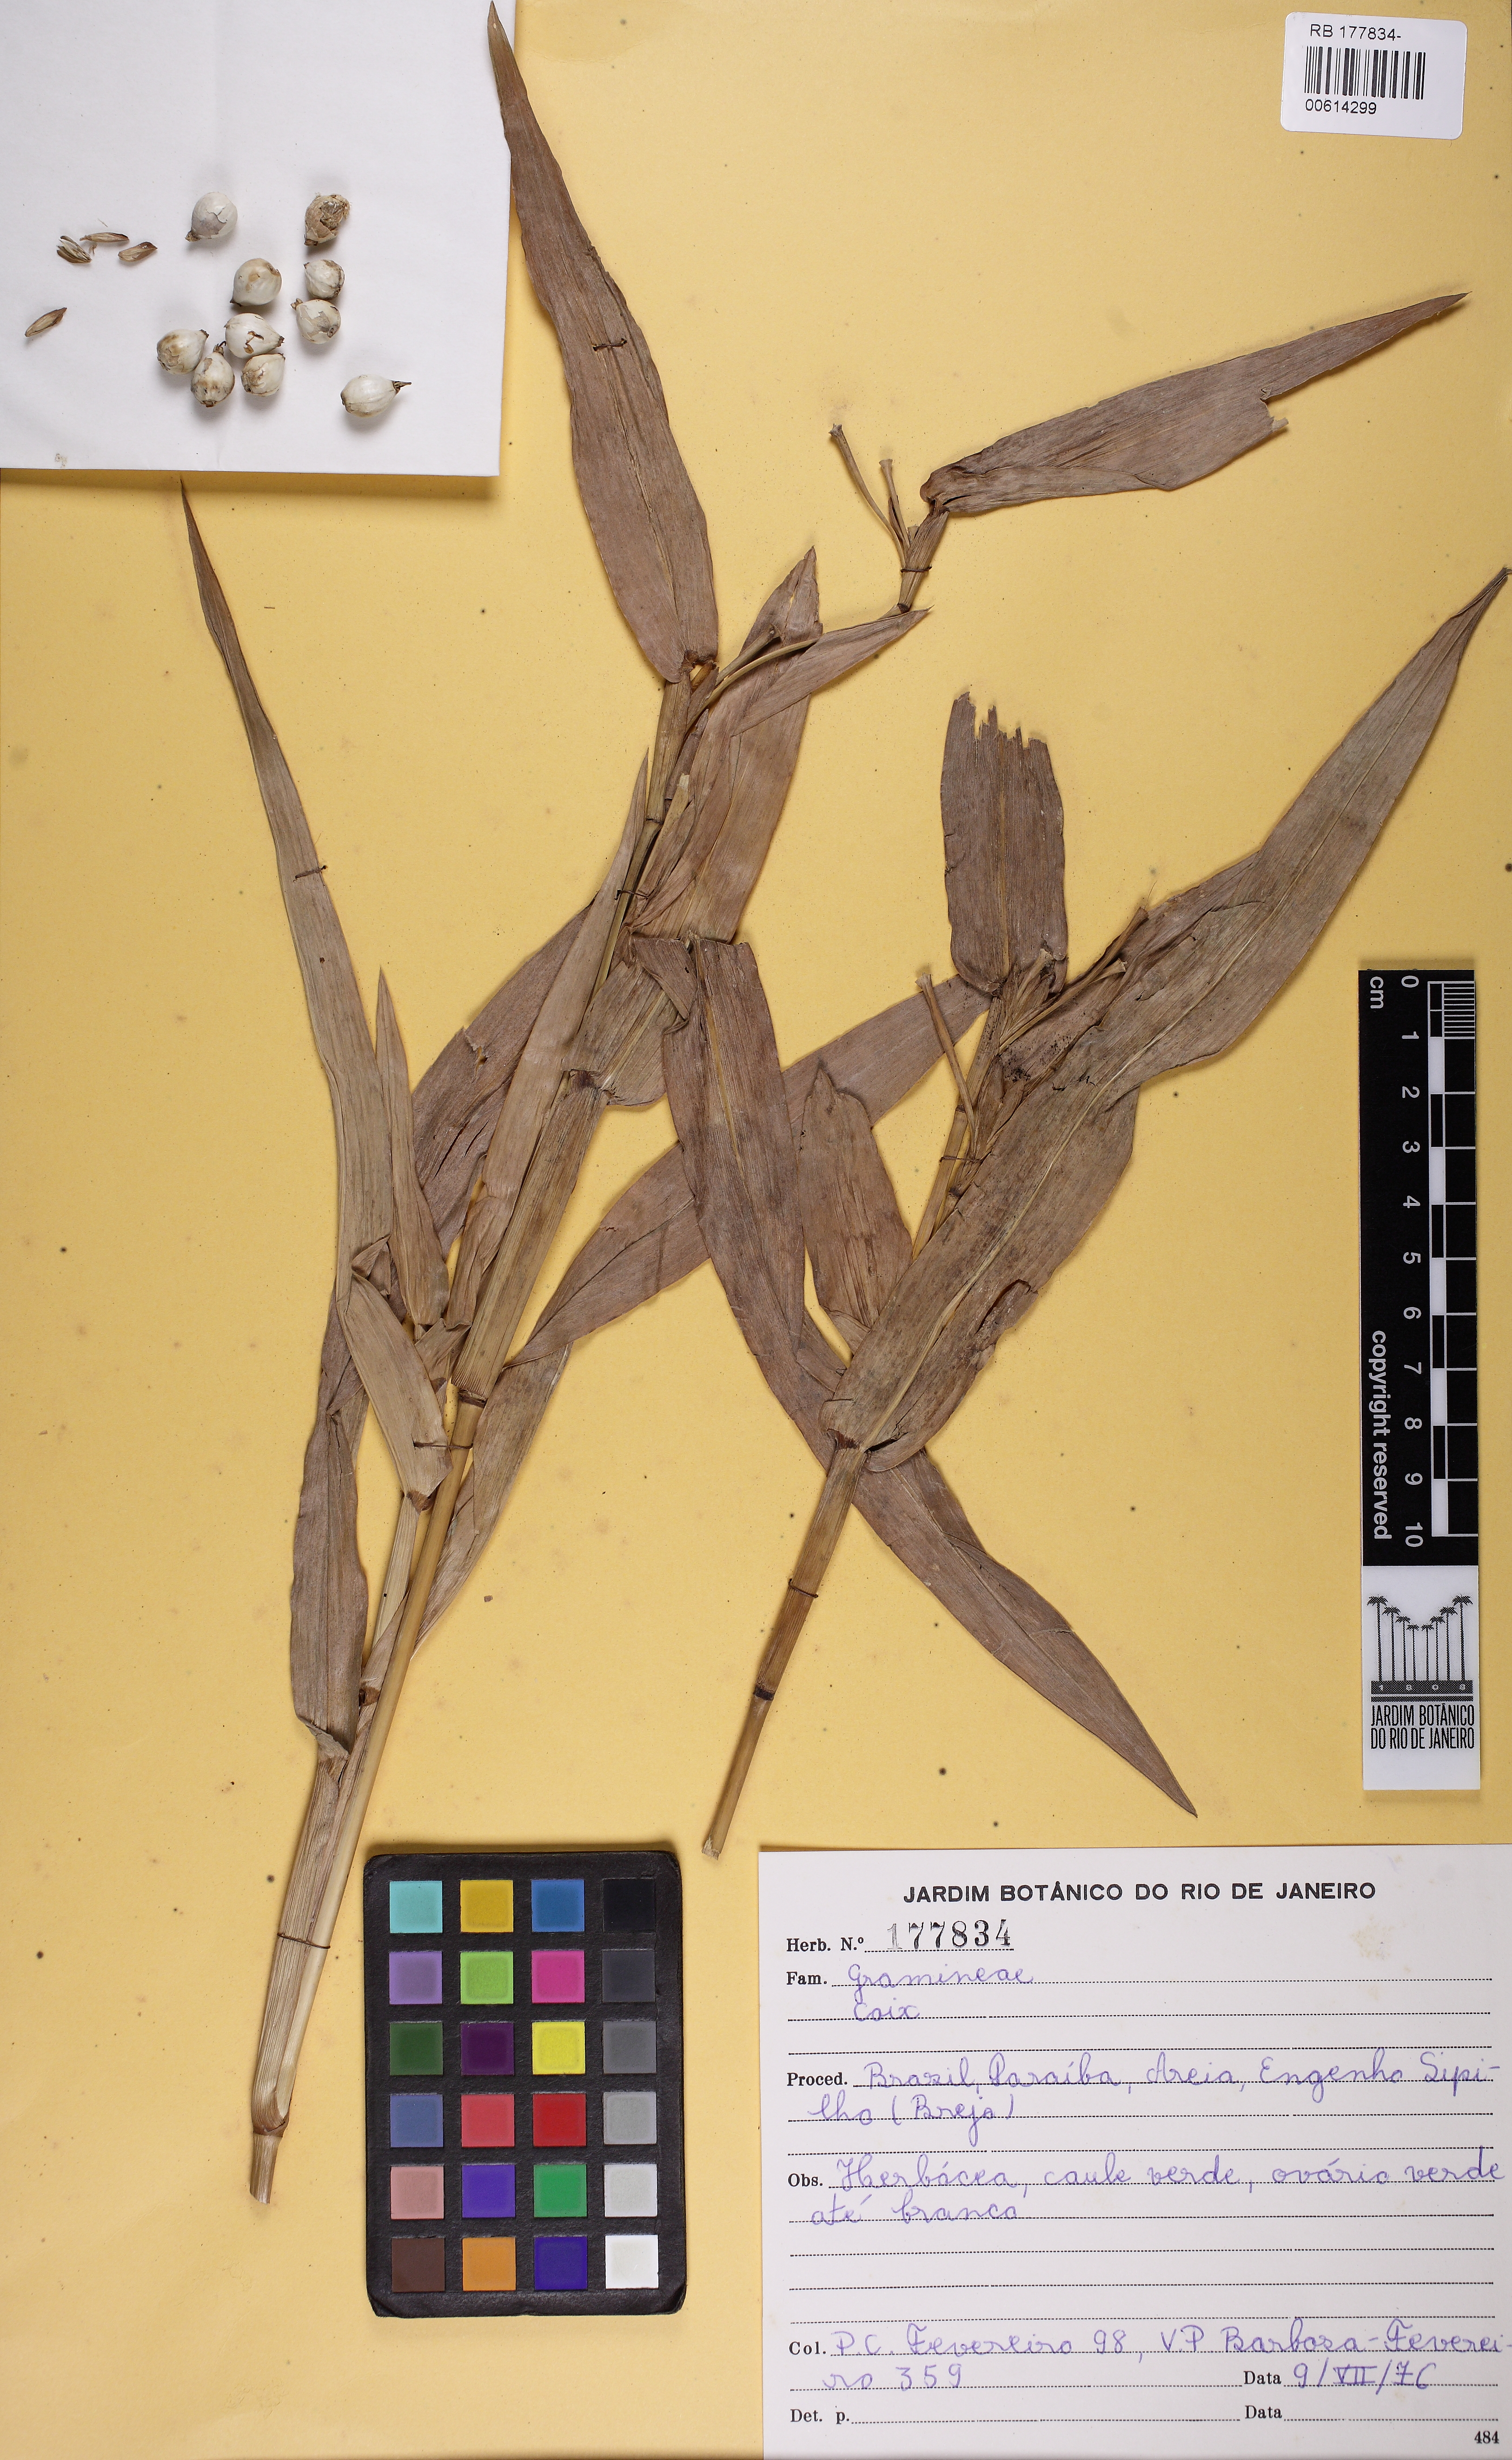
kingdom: Plantae
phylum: Tracheophyta
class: Liliopsida
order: Poales
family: Poaceae
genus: Coix
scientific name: Coix lacryma-jobi
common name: Job's tears
